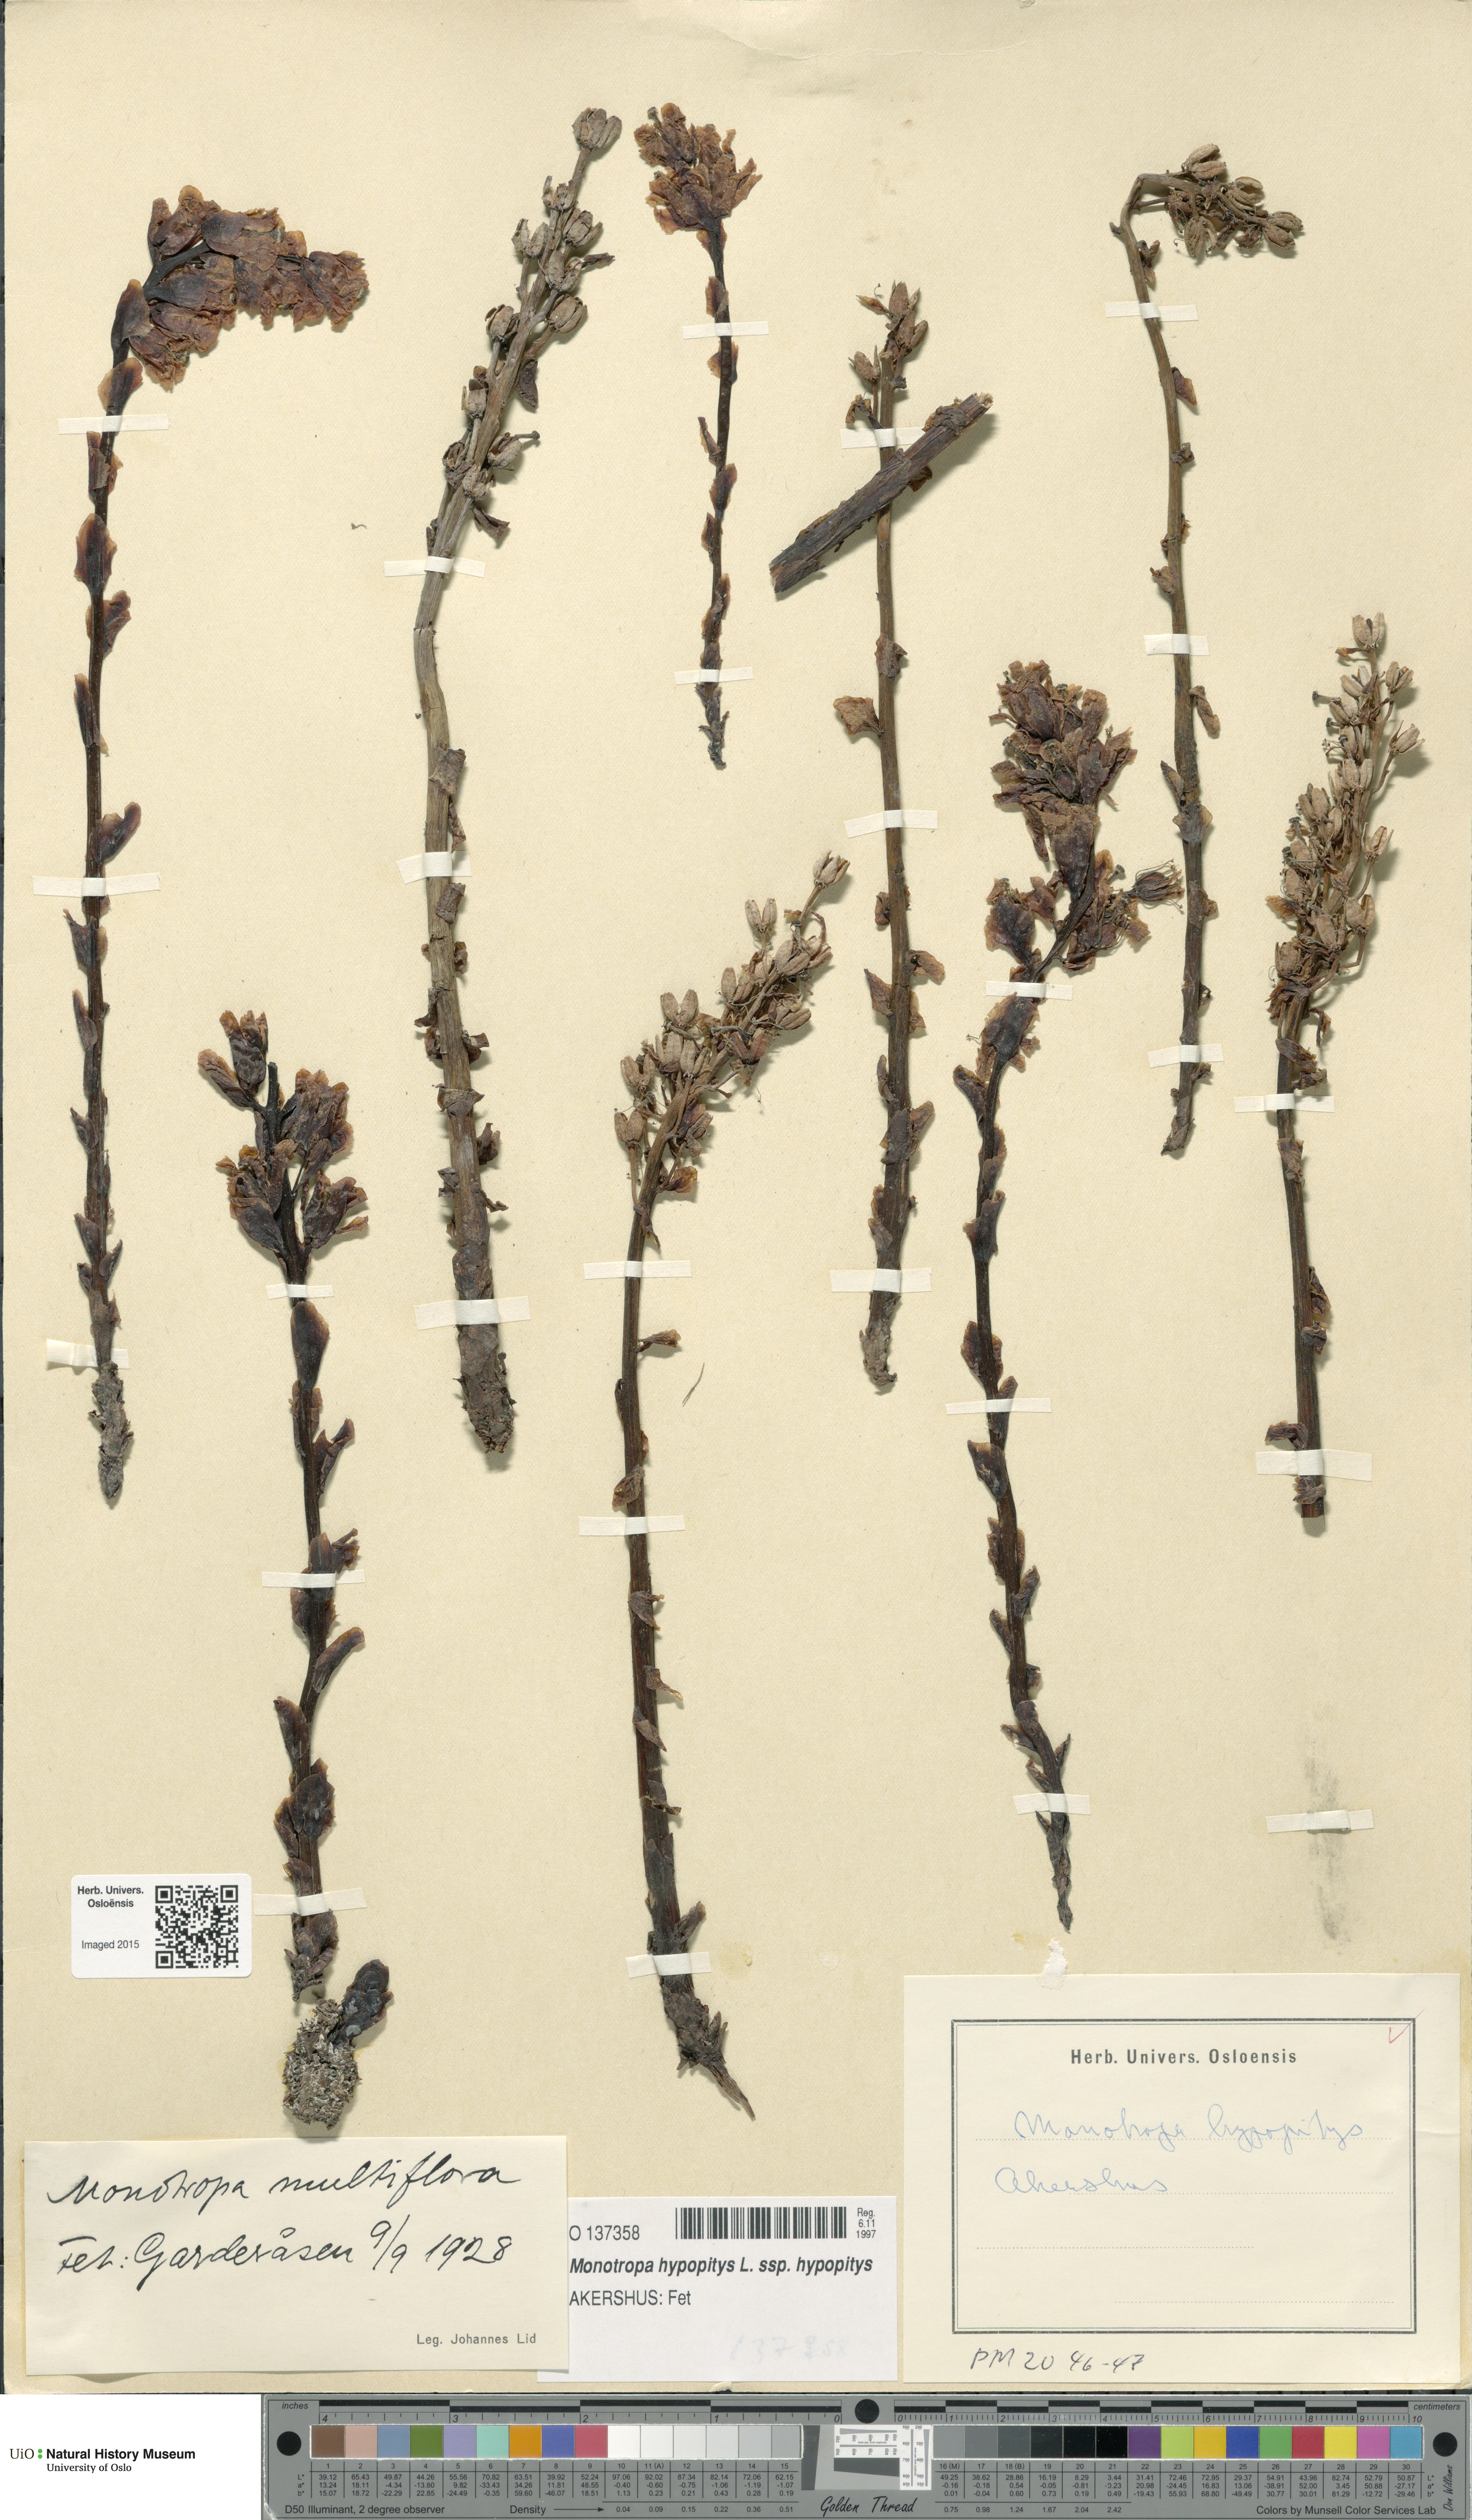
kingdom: Plantae
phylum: Tracheophyta
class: Magnoliopsida
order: Ericales
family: Ericaceae
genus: Hypopitys
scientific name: Hypopitys monotropa
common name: Yellow bird's-nest
